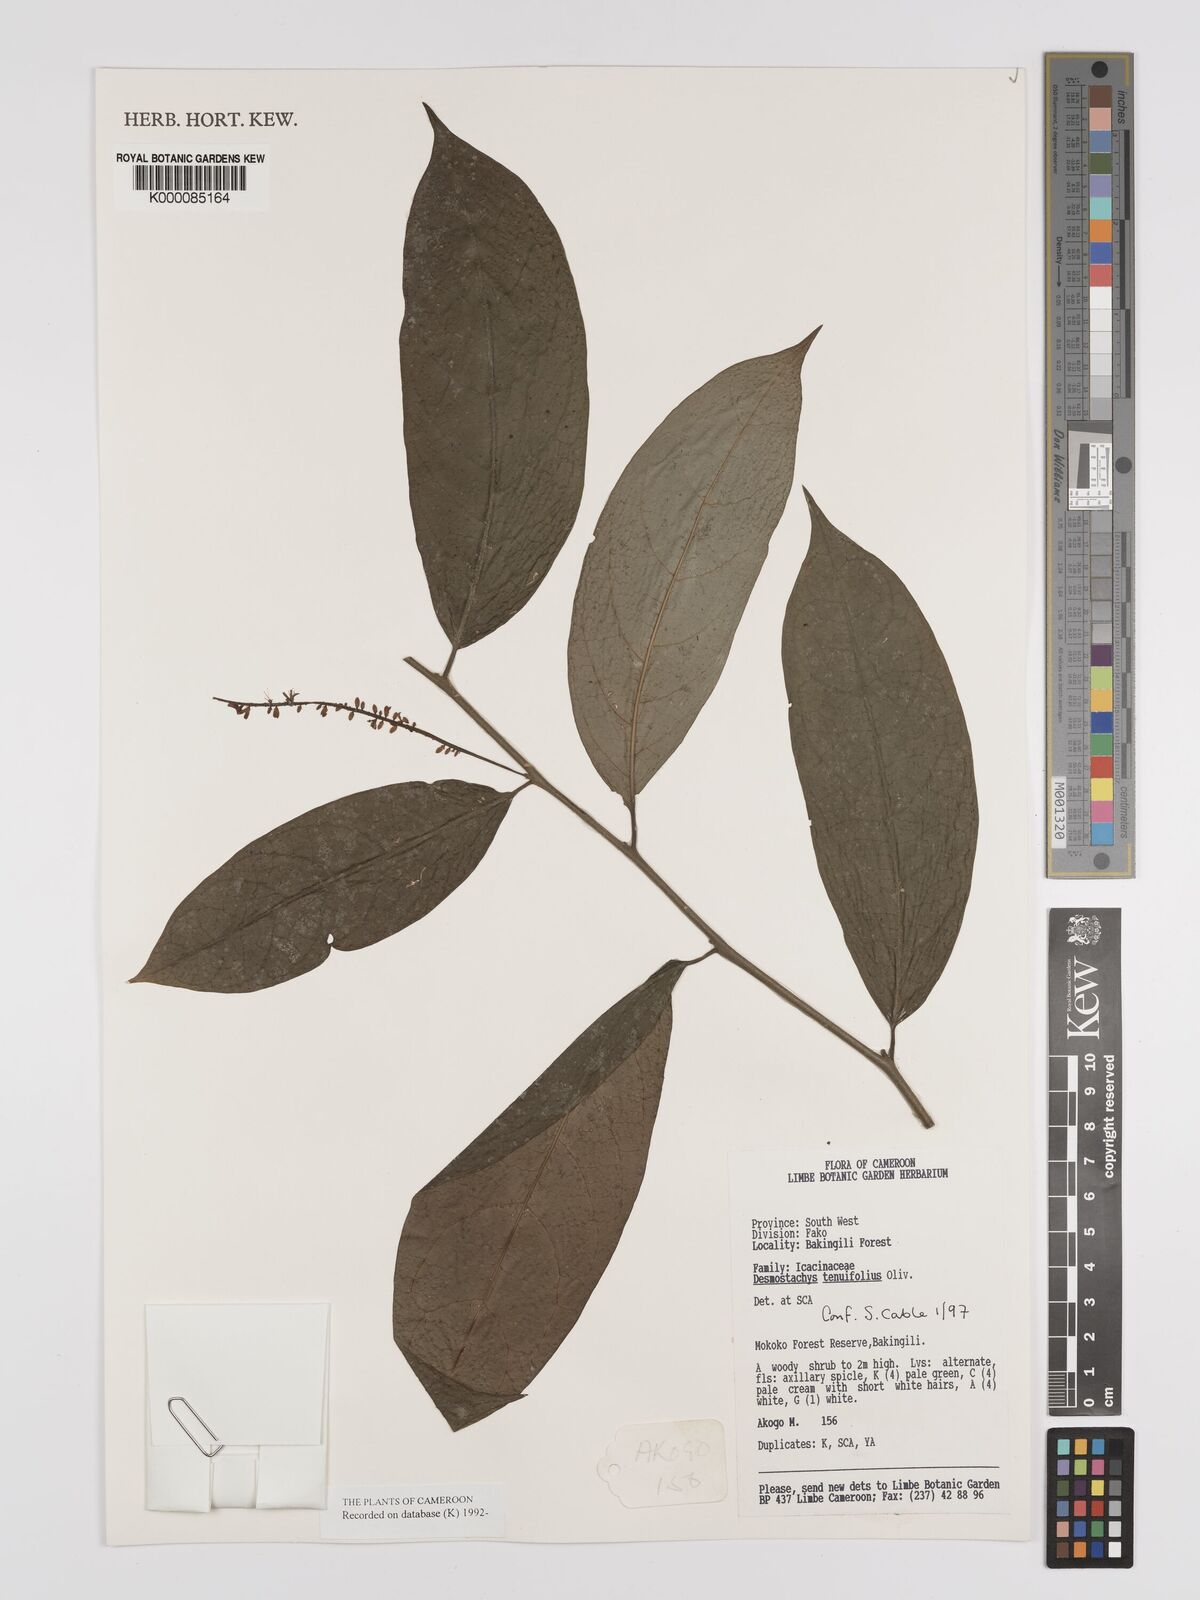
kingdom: Plantae
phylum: Tracheophyta
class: Magnoliopsida
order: Icacinales
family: Icacinaceae
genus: Vadensea
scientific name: Vadensea tenuifolia
